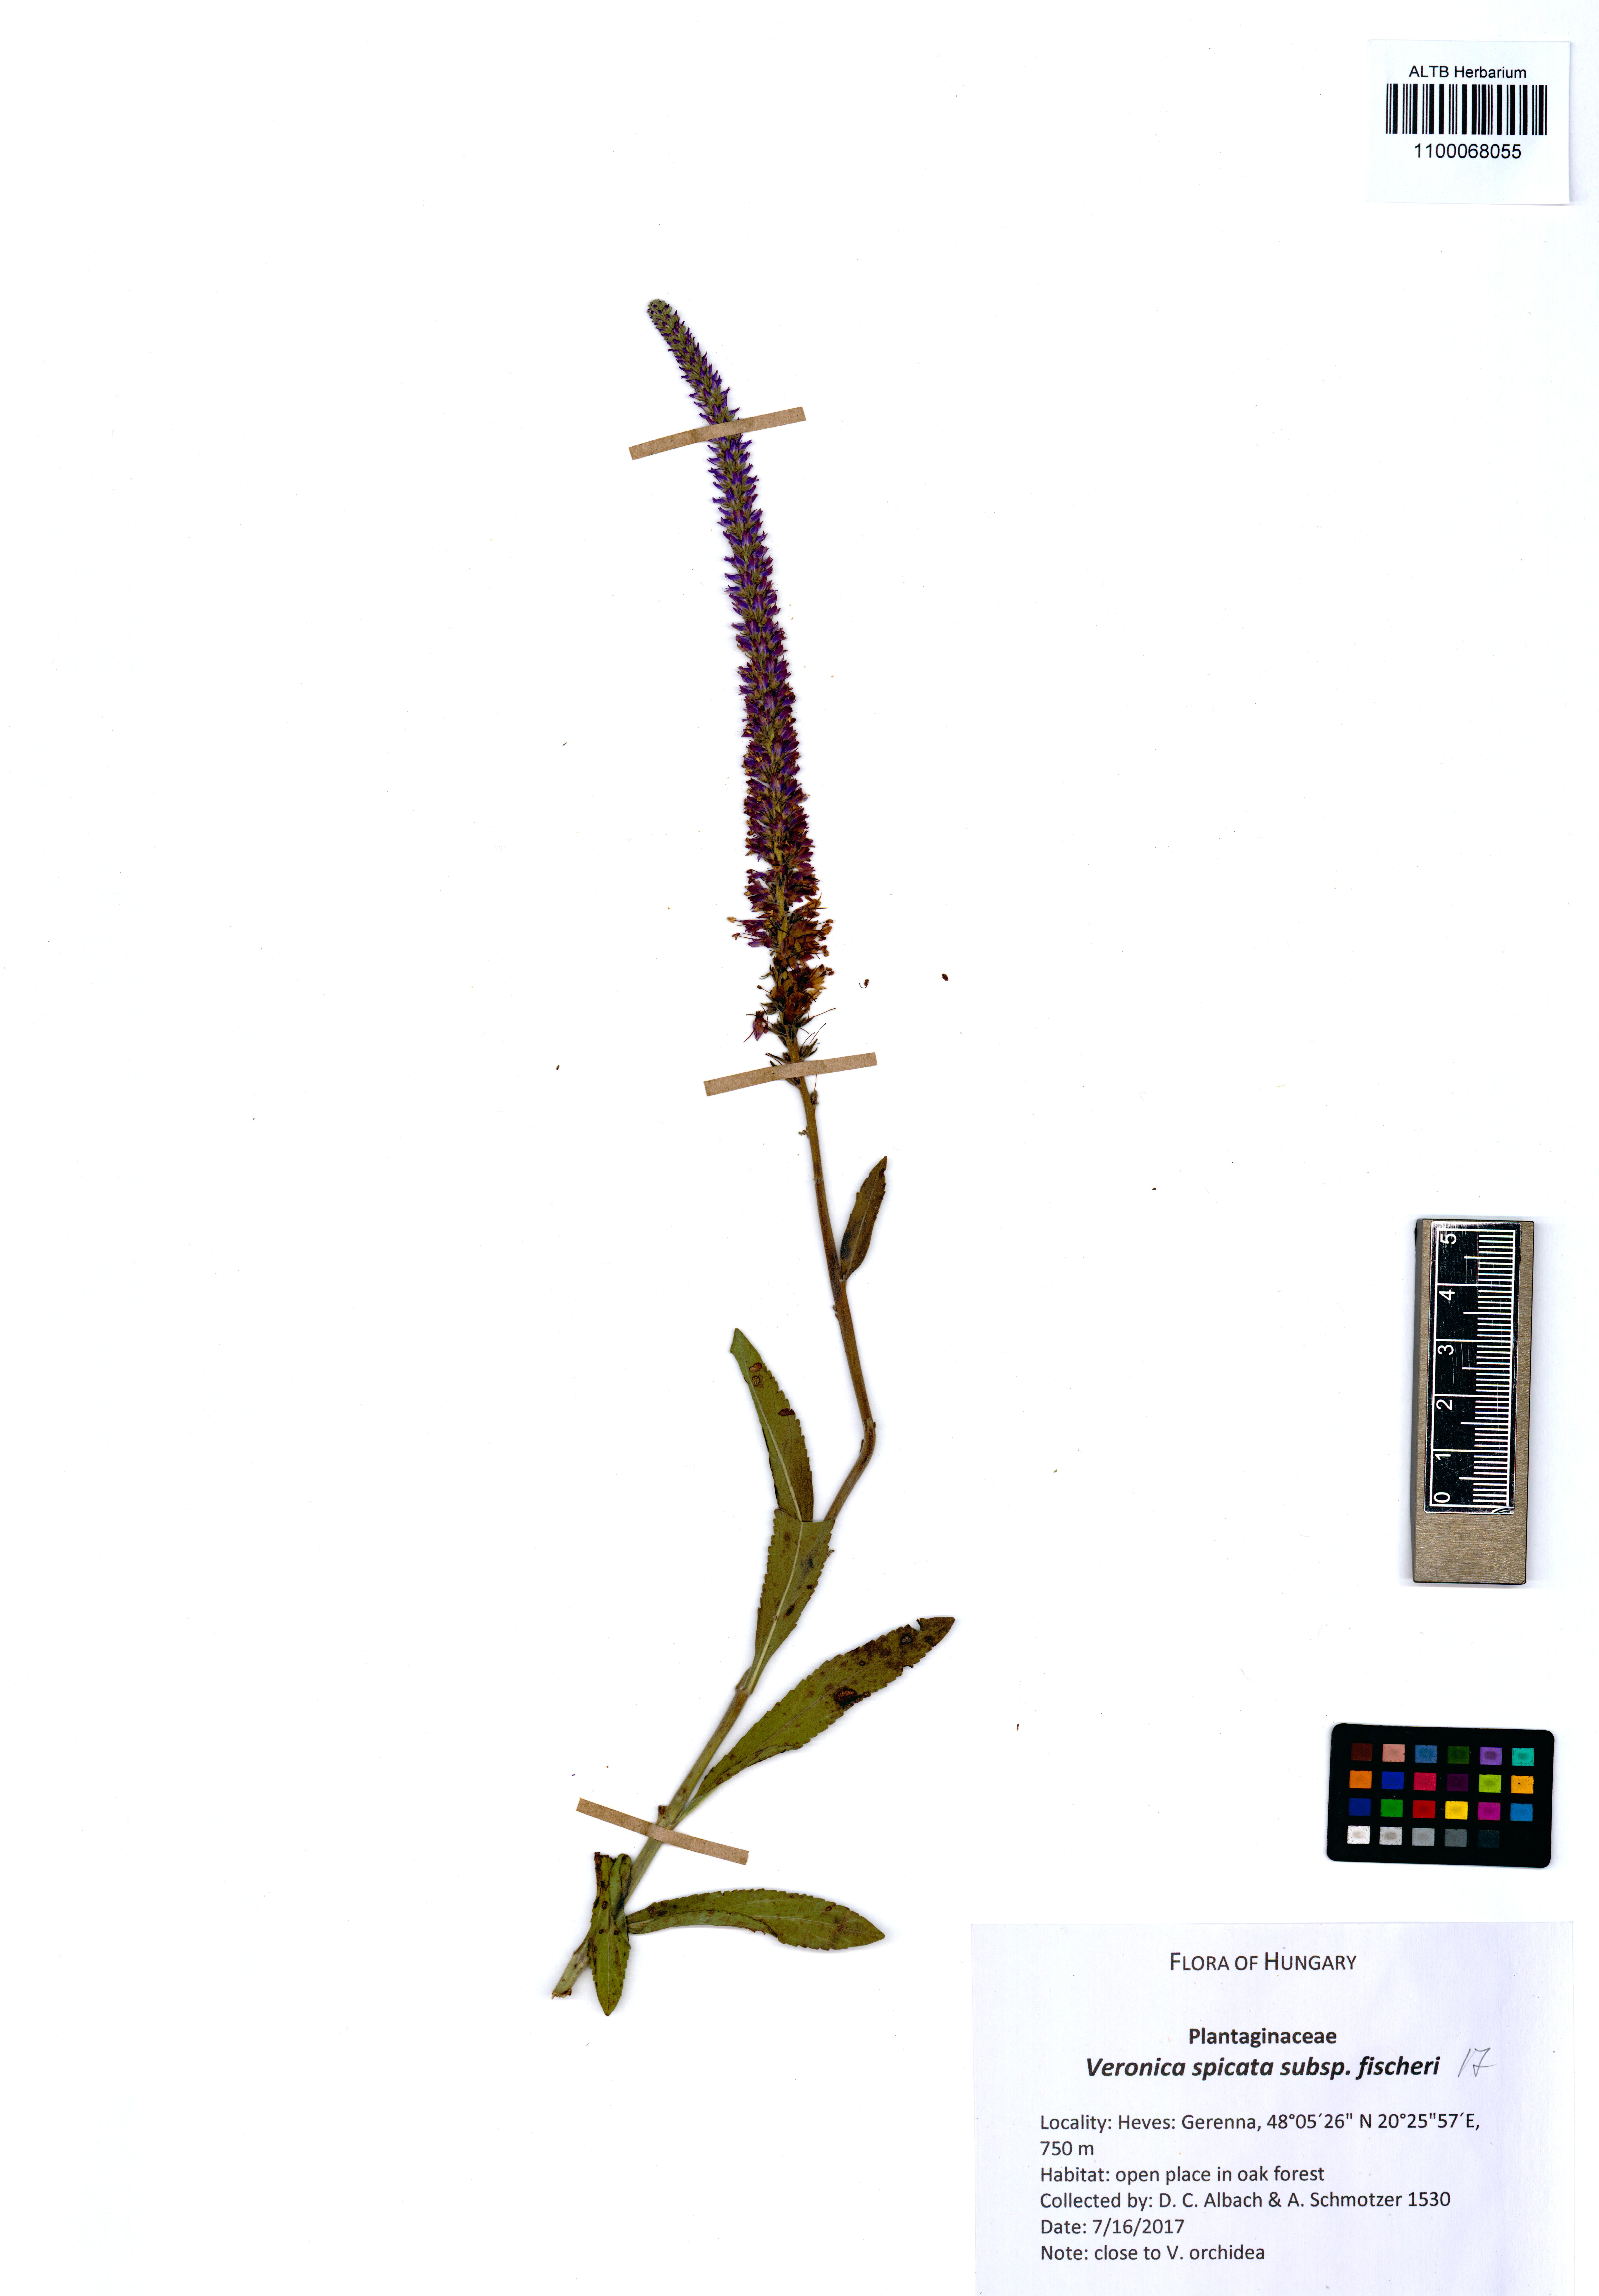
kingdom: Plantae
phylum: Tracheophyta
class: Magnoliopsida
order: Lamiales
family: Plantaginaceae
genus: Veronica
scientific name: Veronica spicata
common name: Spiked speedwell
